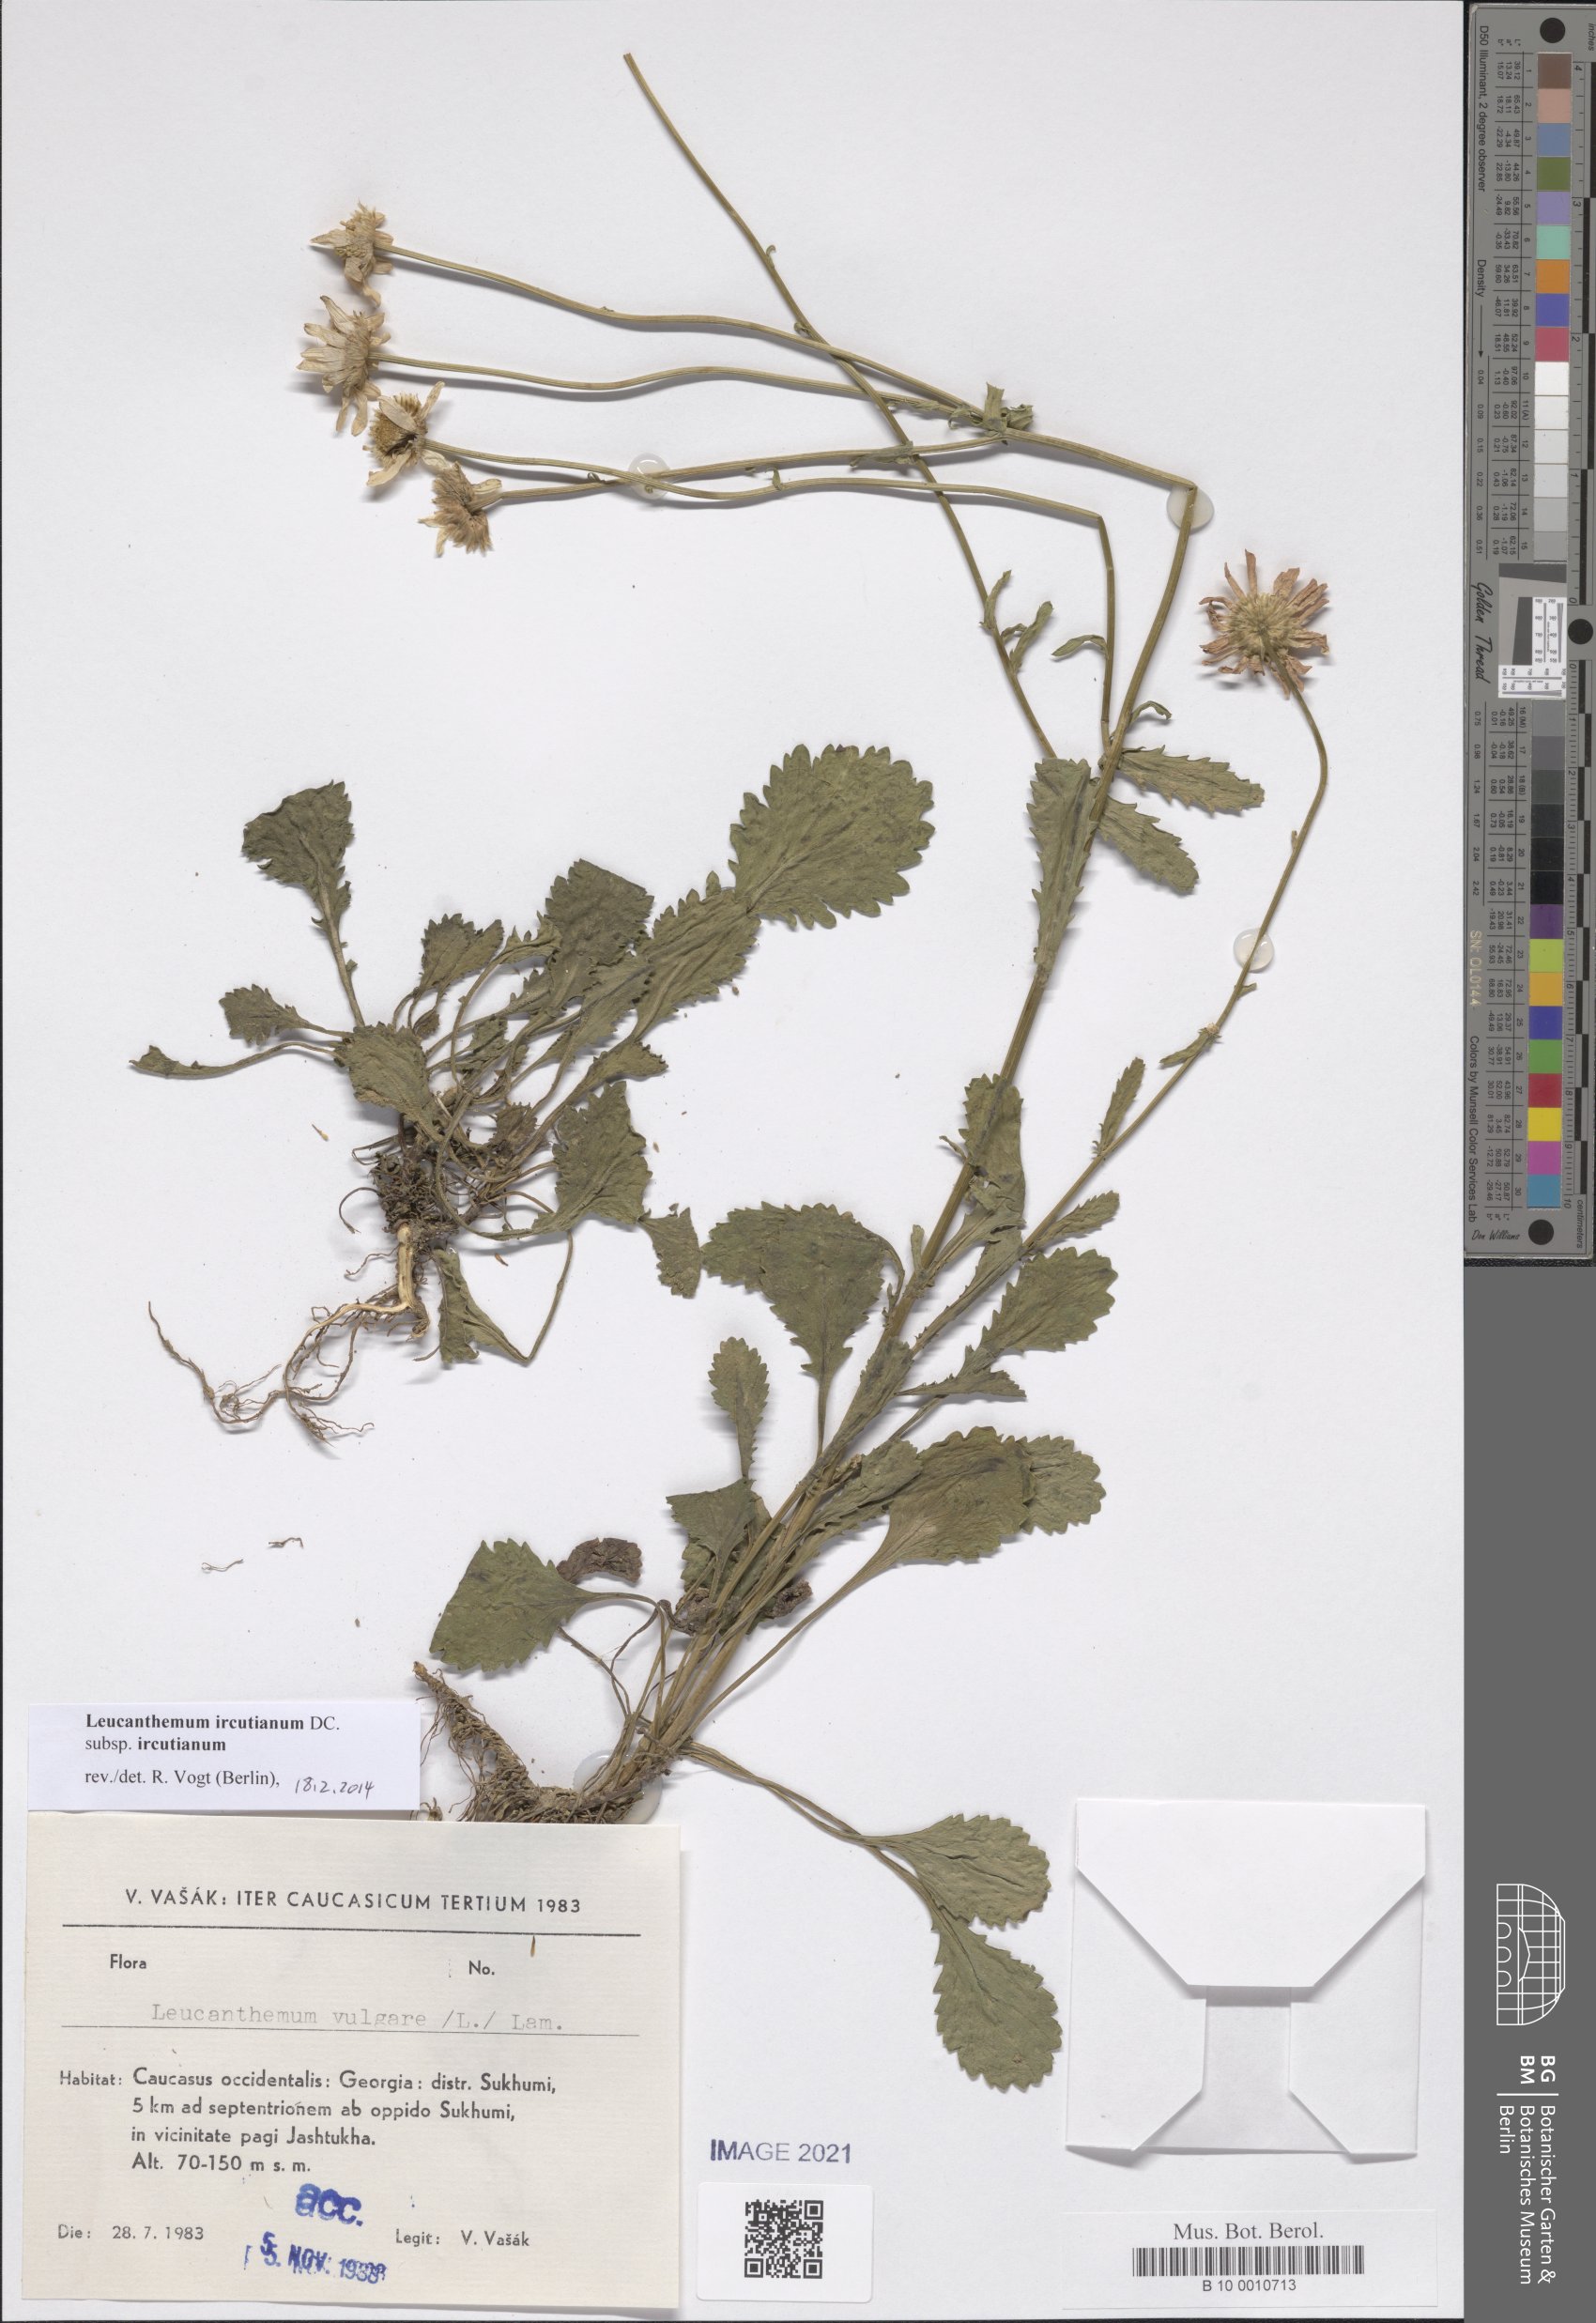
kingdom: Plantae
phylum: Tracheophyta
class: Magnoliopsida
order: Asterales
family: Asteraceae
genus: Leucanthemum
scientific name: Leucanthemum ircutianum
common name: Daisy
